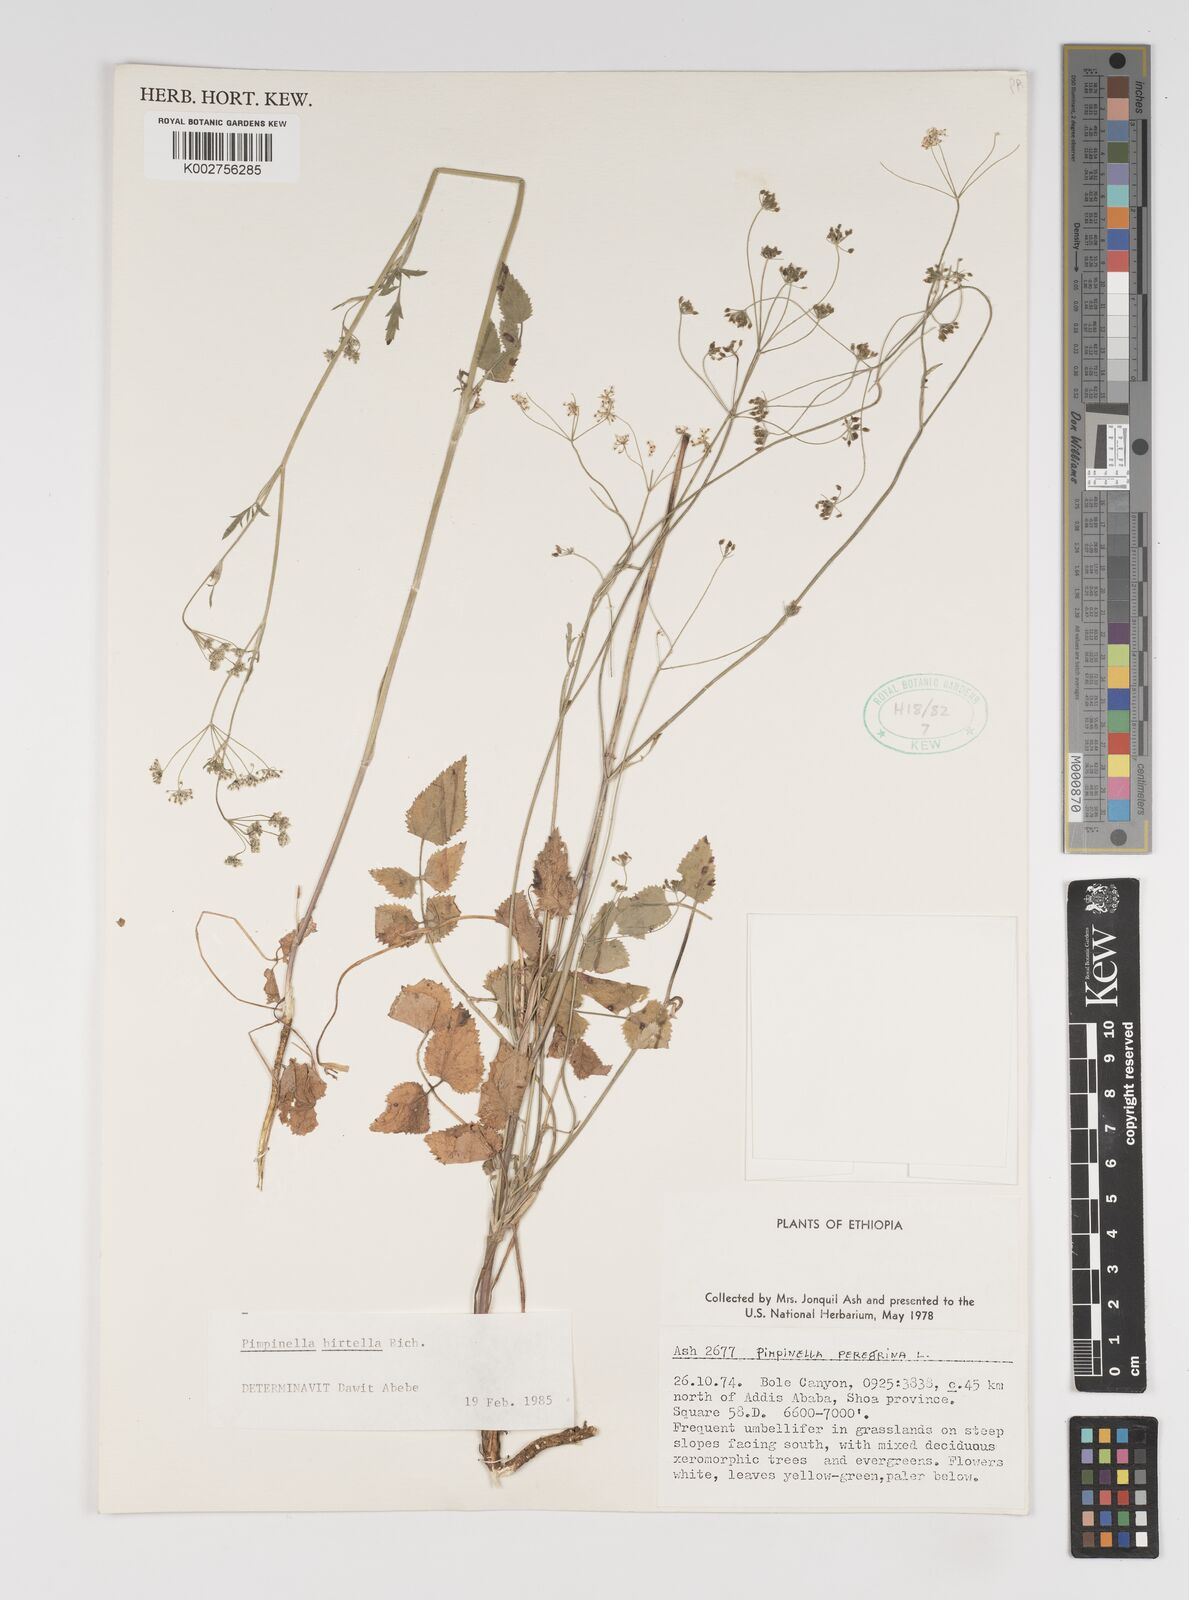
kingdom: Plantae
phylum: Tracheophyta
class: Magnoliopsida
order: Apiales
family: Apiaceae
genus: Pimpinella
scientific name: Pimpinella hirtella
